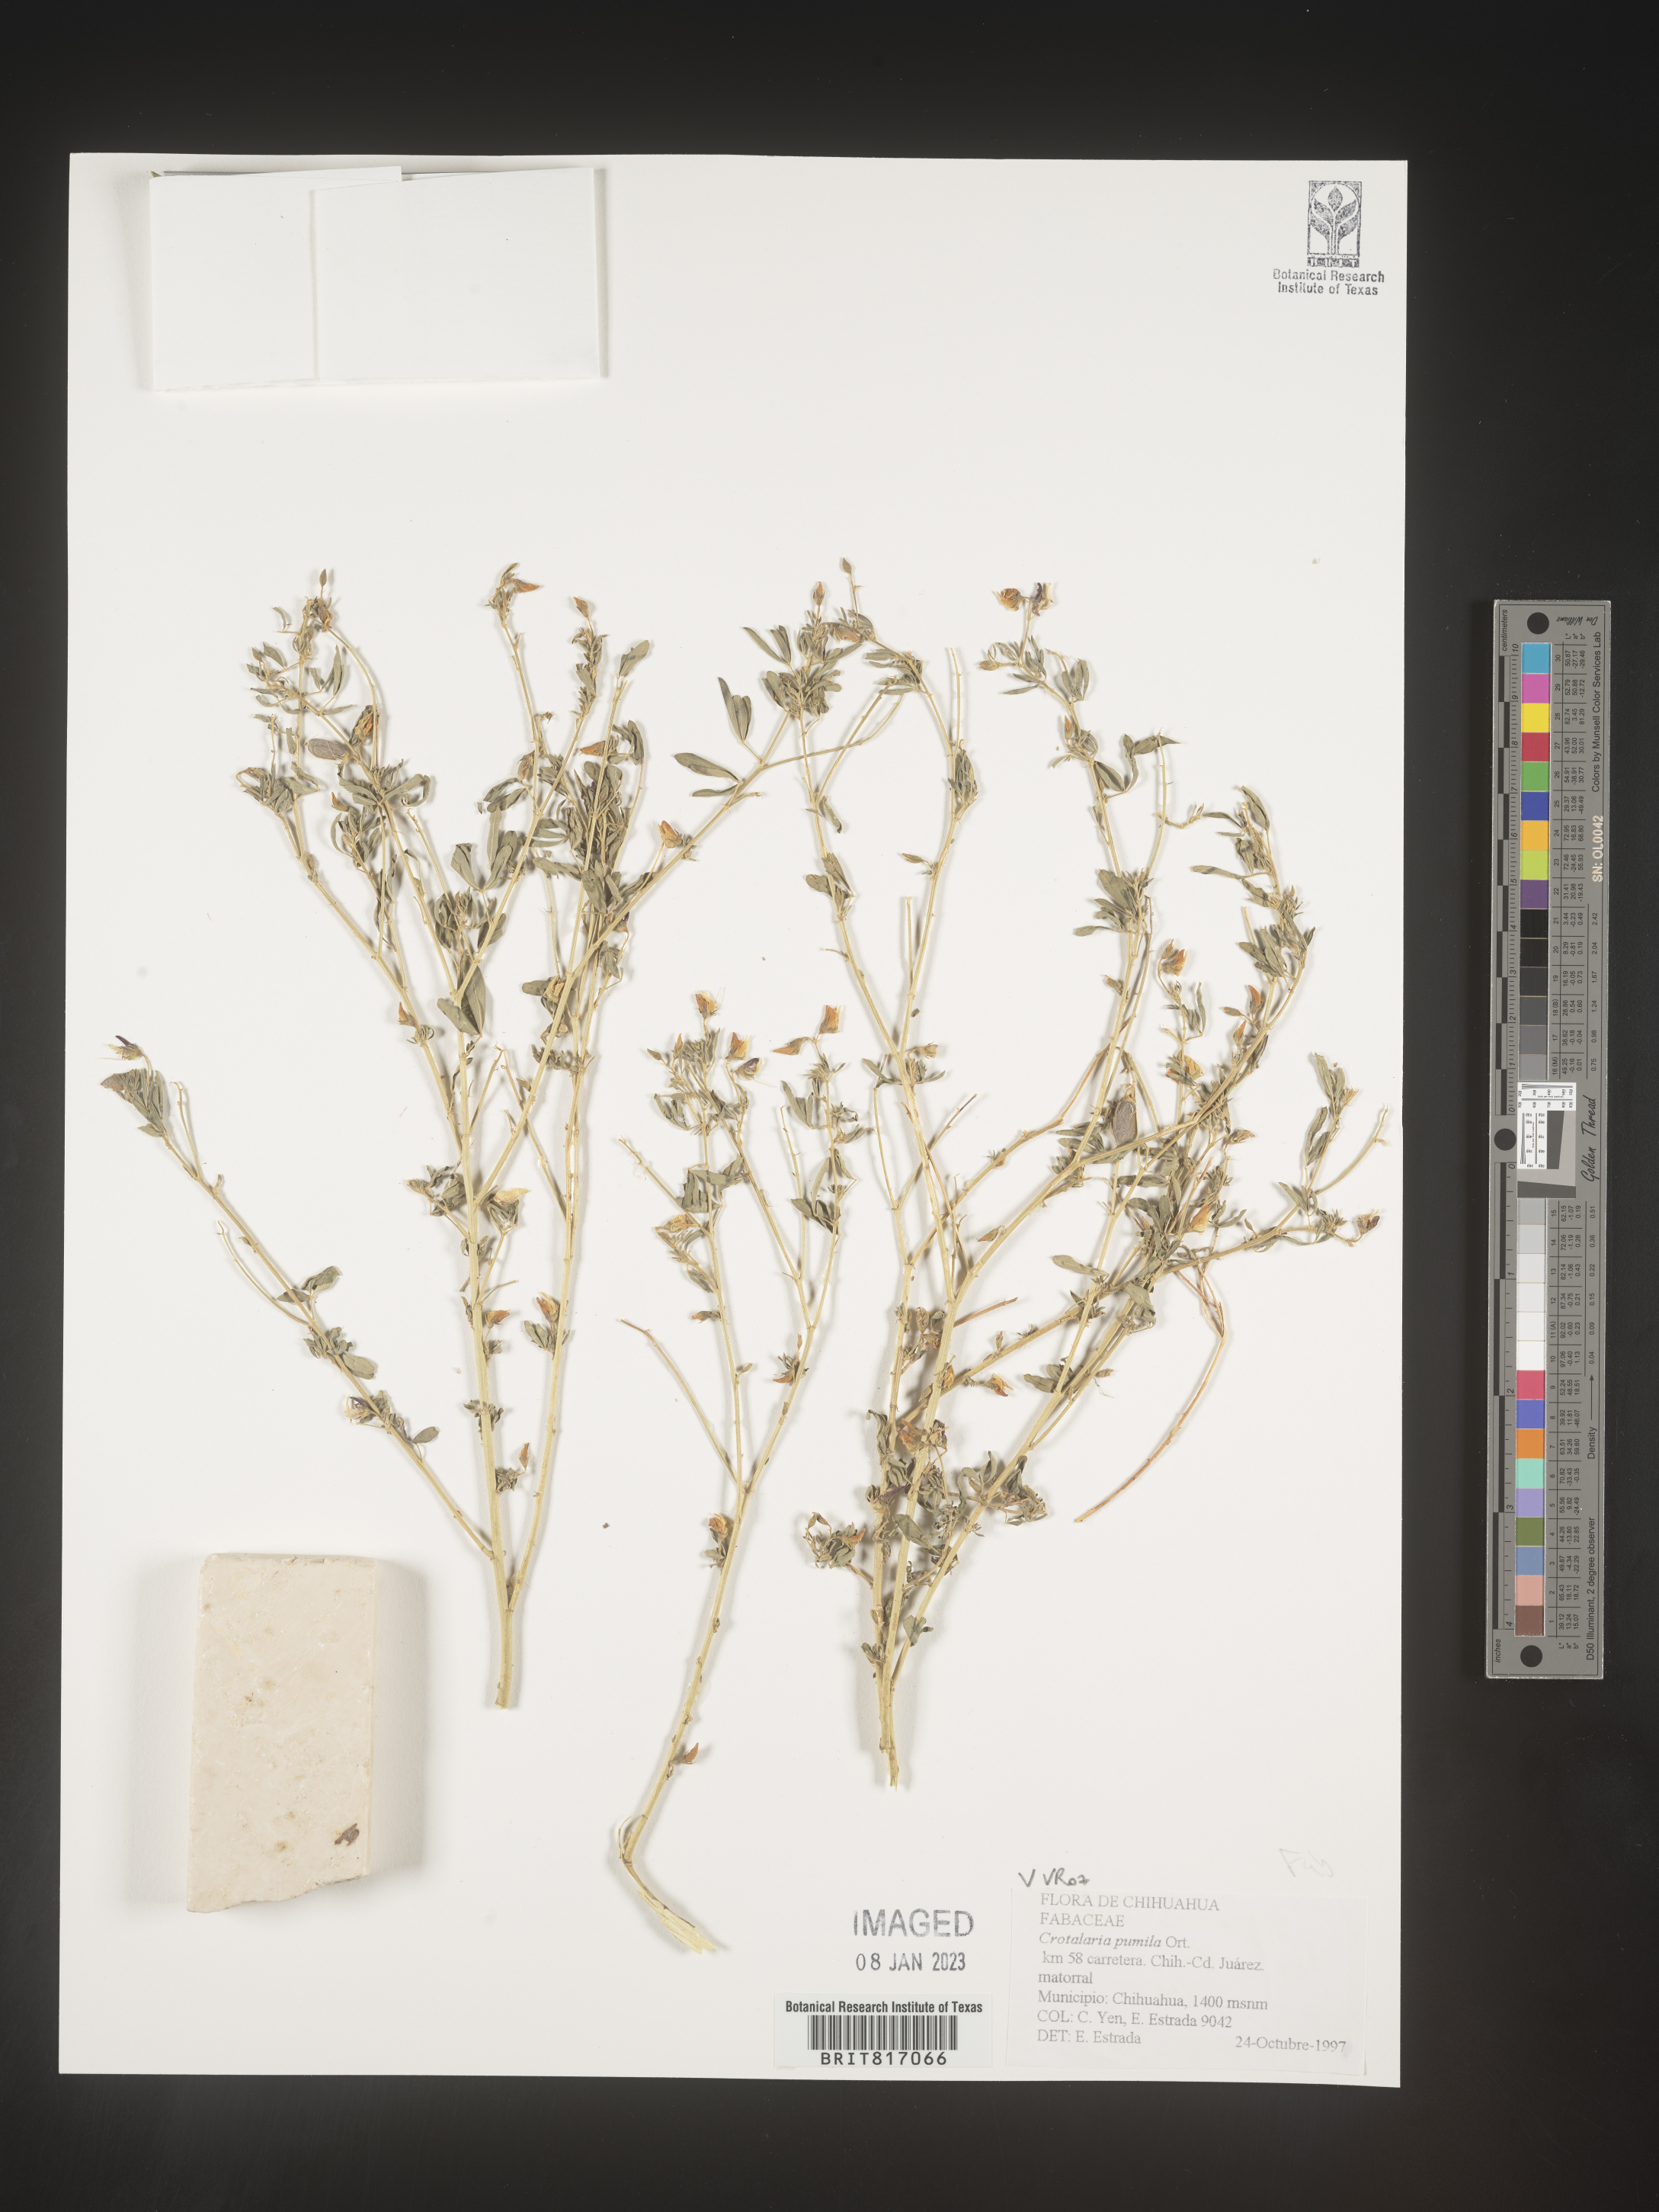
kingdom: Plantae
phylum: Tracheophyta
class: Magnoliopsida
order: Fabales
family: Fabaceae
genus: Crotalaria
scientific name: Crotalaria
